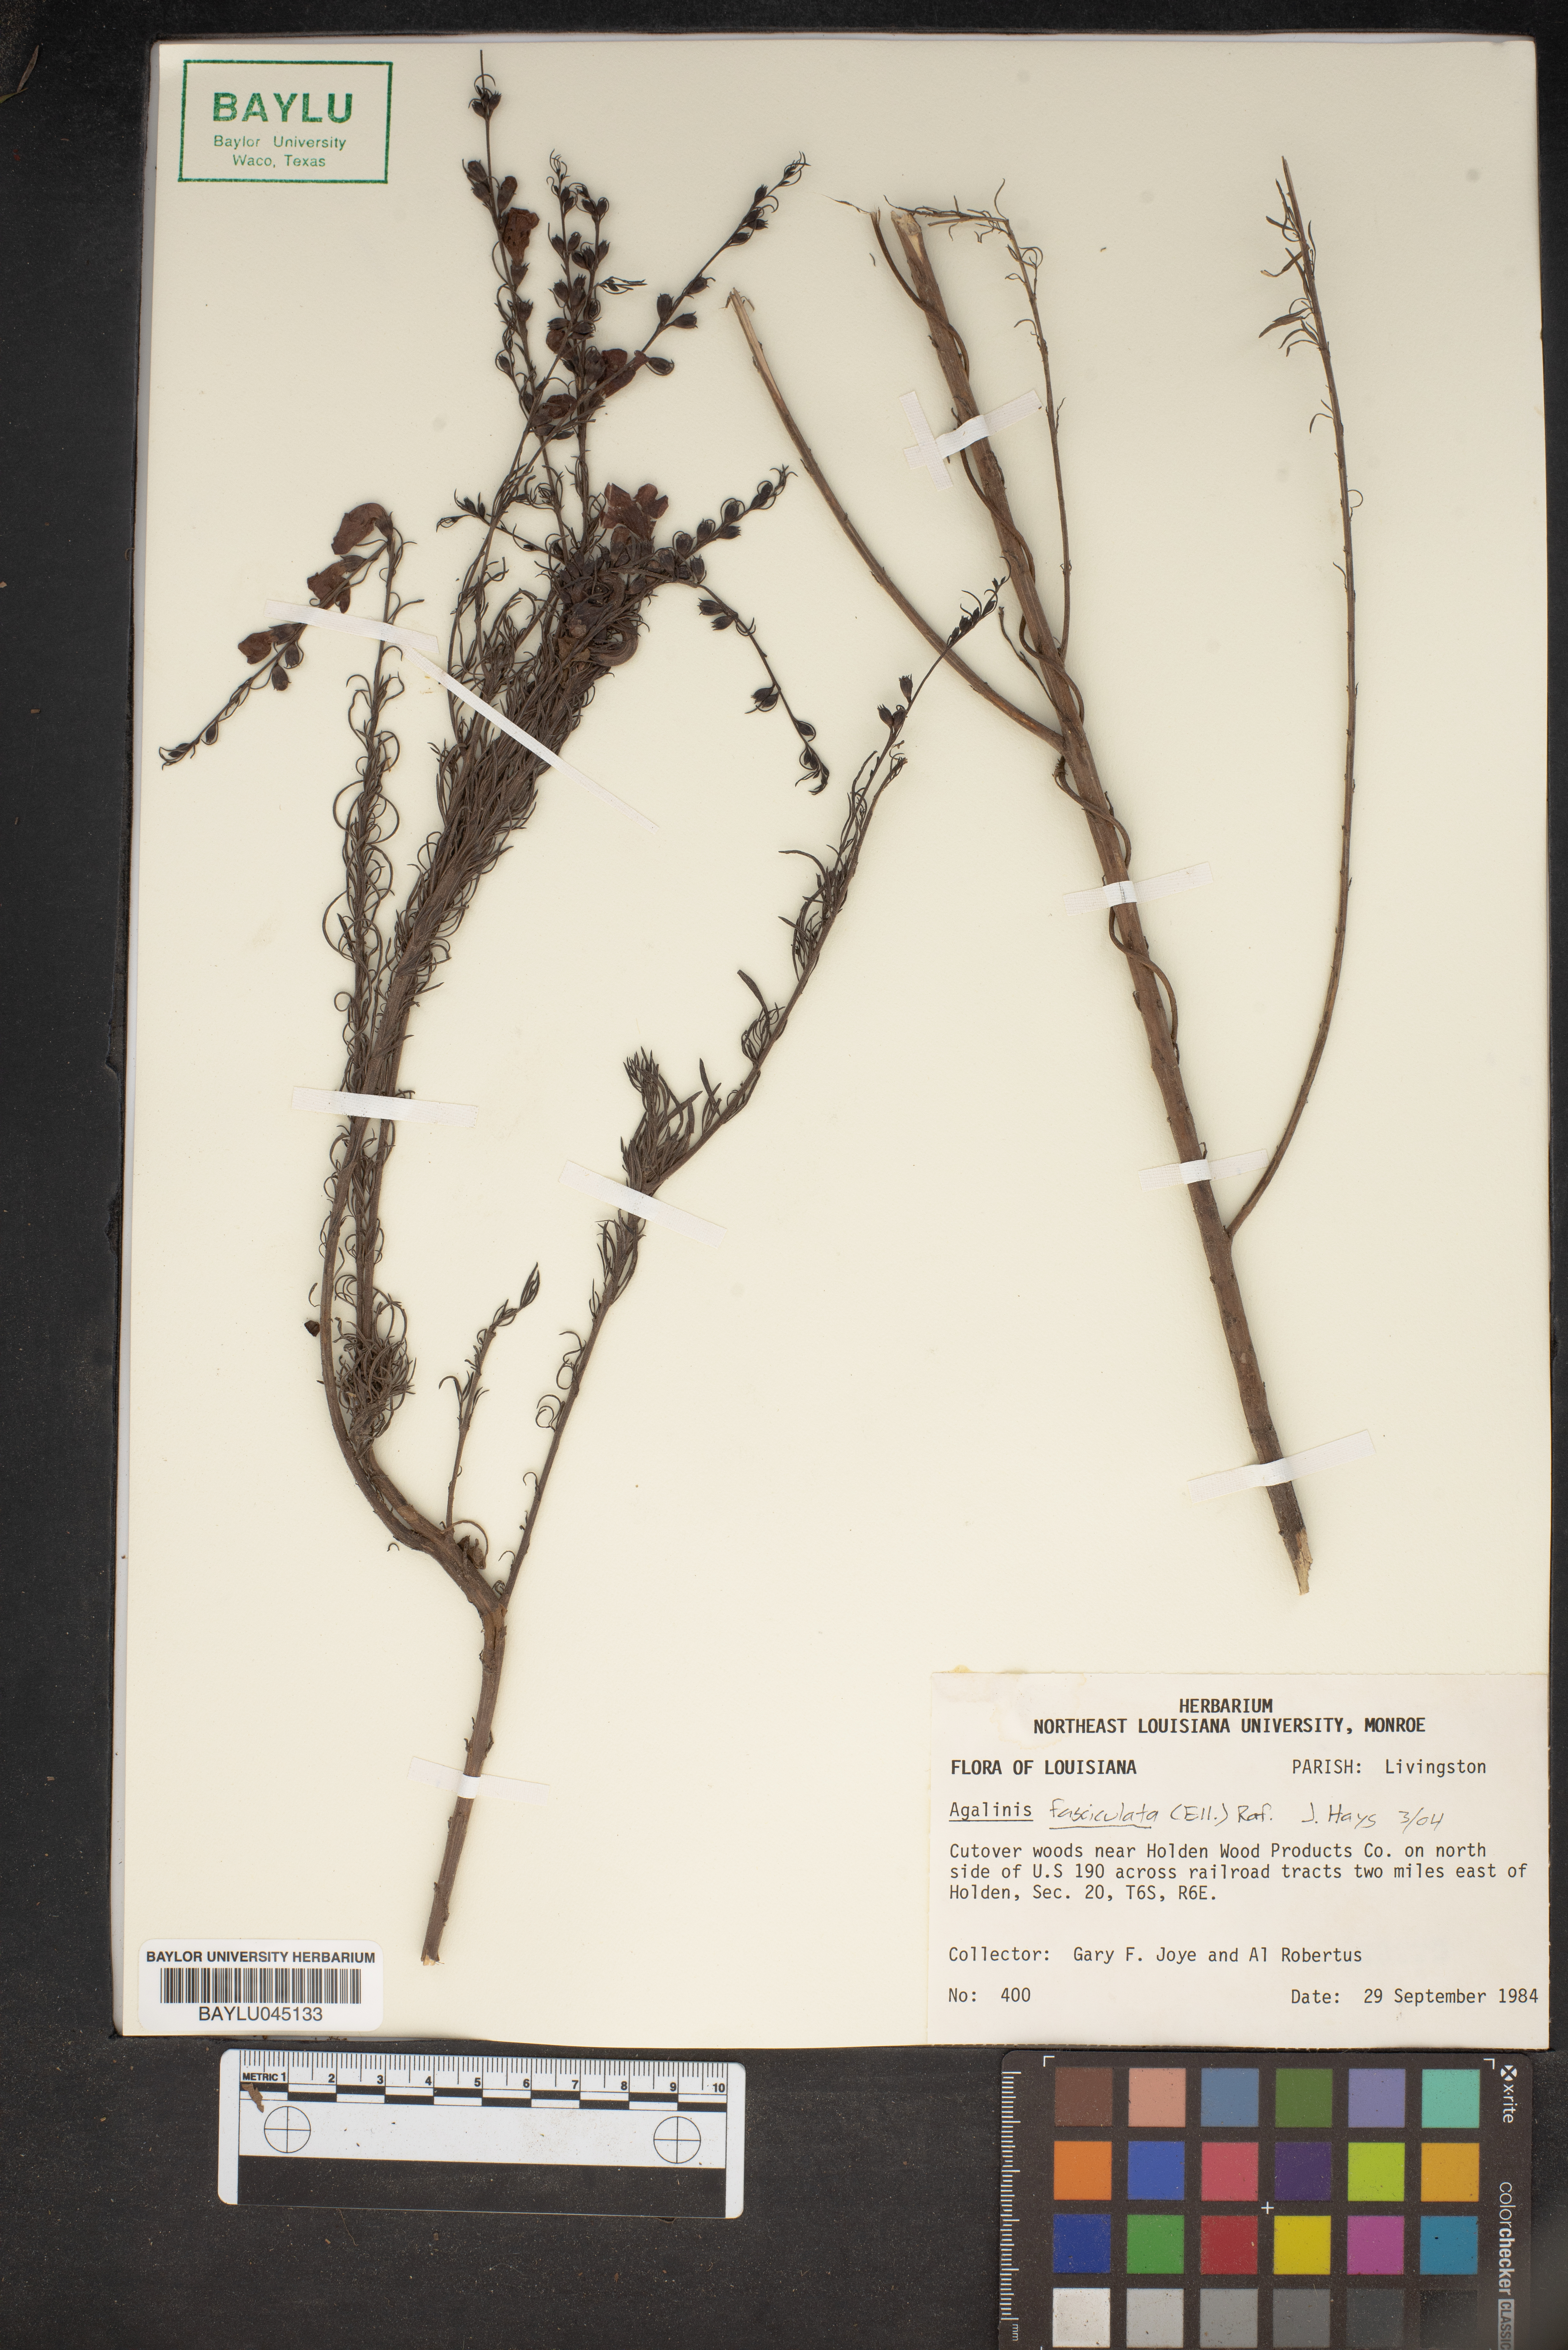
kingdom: Plantae
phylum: Tracheophyta
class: Magnoliopsida
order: Lamiales
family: Orobanchaceae
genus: Agalinis
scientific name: Agalinis fasciculata
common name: Beach false foxglove
